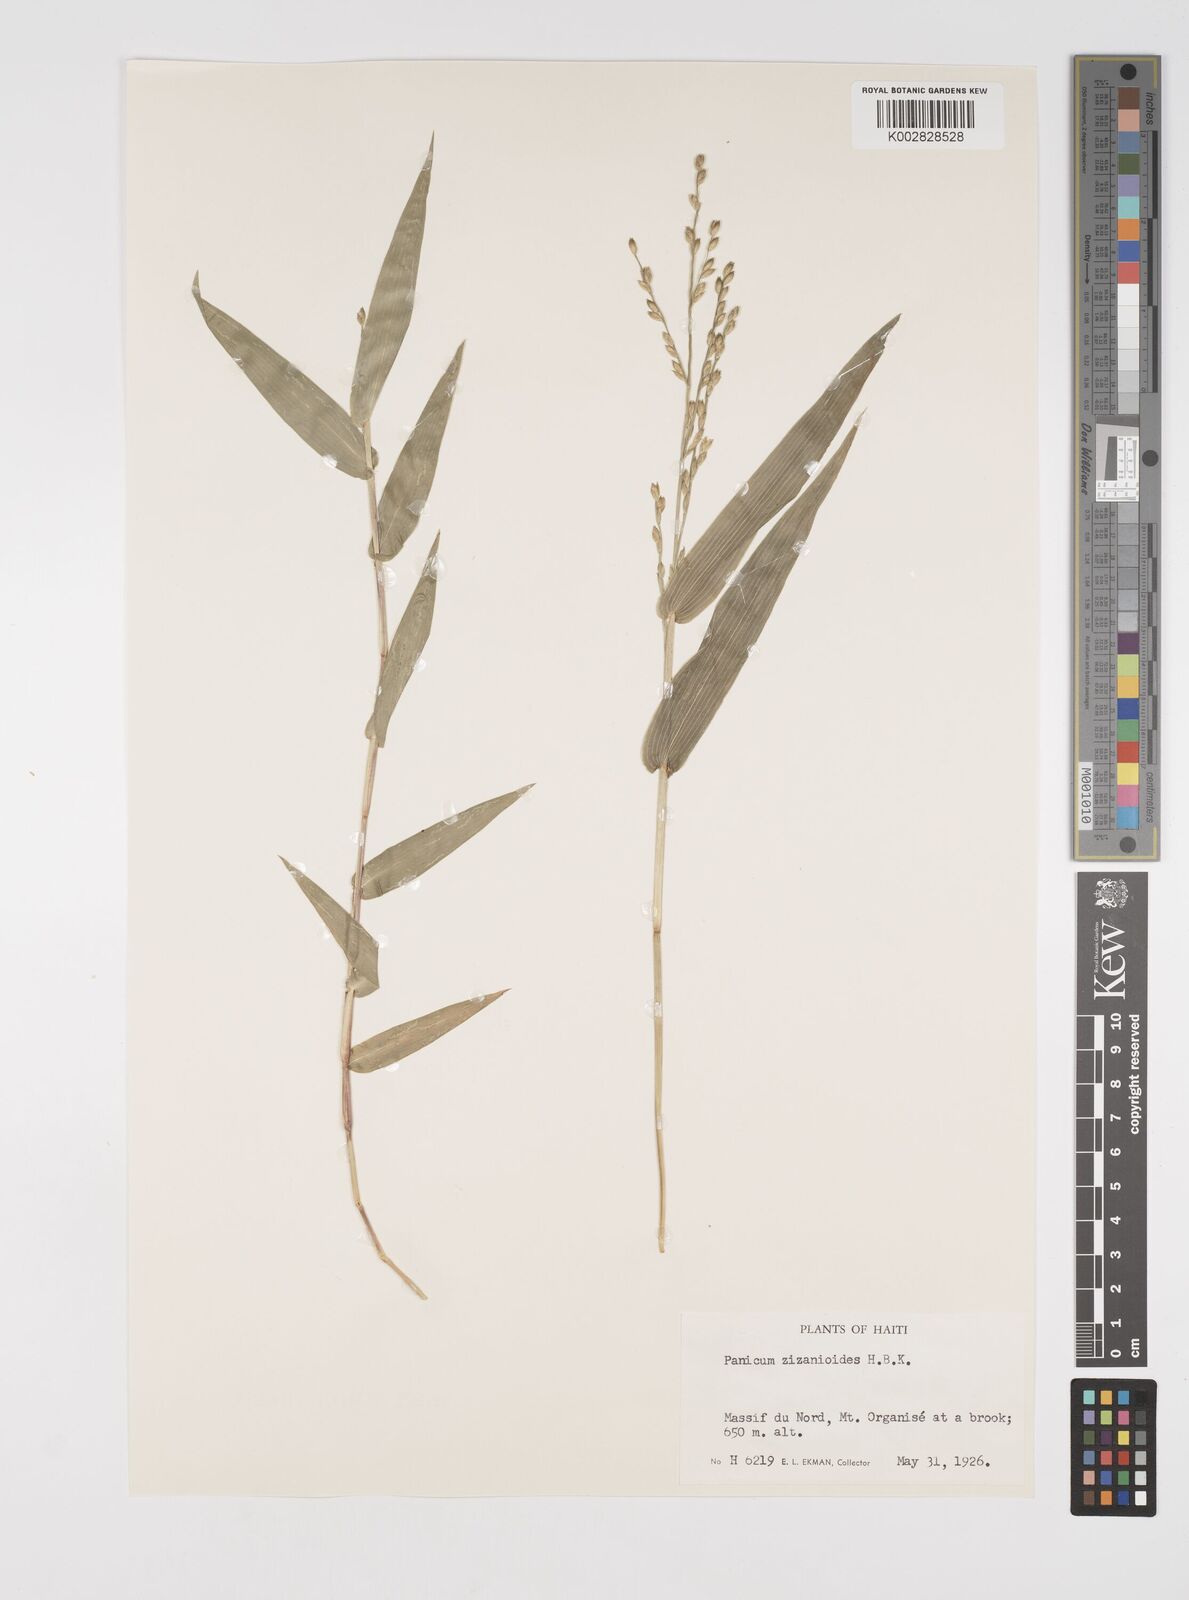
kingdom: Plantae
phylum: Tracheophyta
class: Liliopsida
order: Poales
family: Poaceae
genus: Acroceras
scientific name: Acroceras zizanioides
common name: Oat grass
